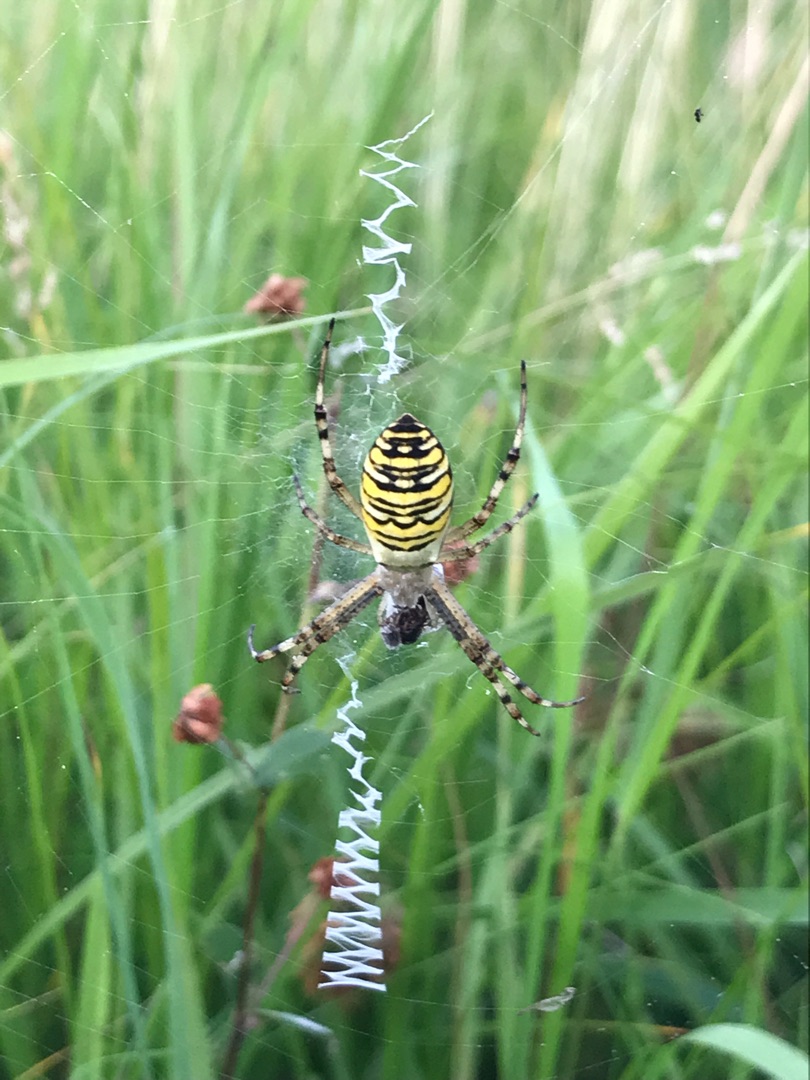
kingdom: Animalia
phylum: Arthropoda
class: Arachnida
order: Araneae
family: Araneidae
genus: Argiope
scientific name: Argiope bruennichi
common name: Hvepseedderkop
